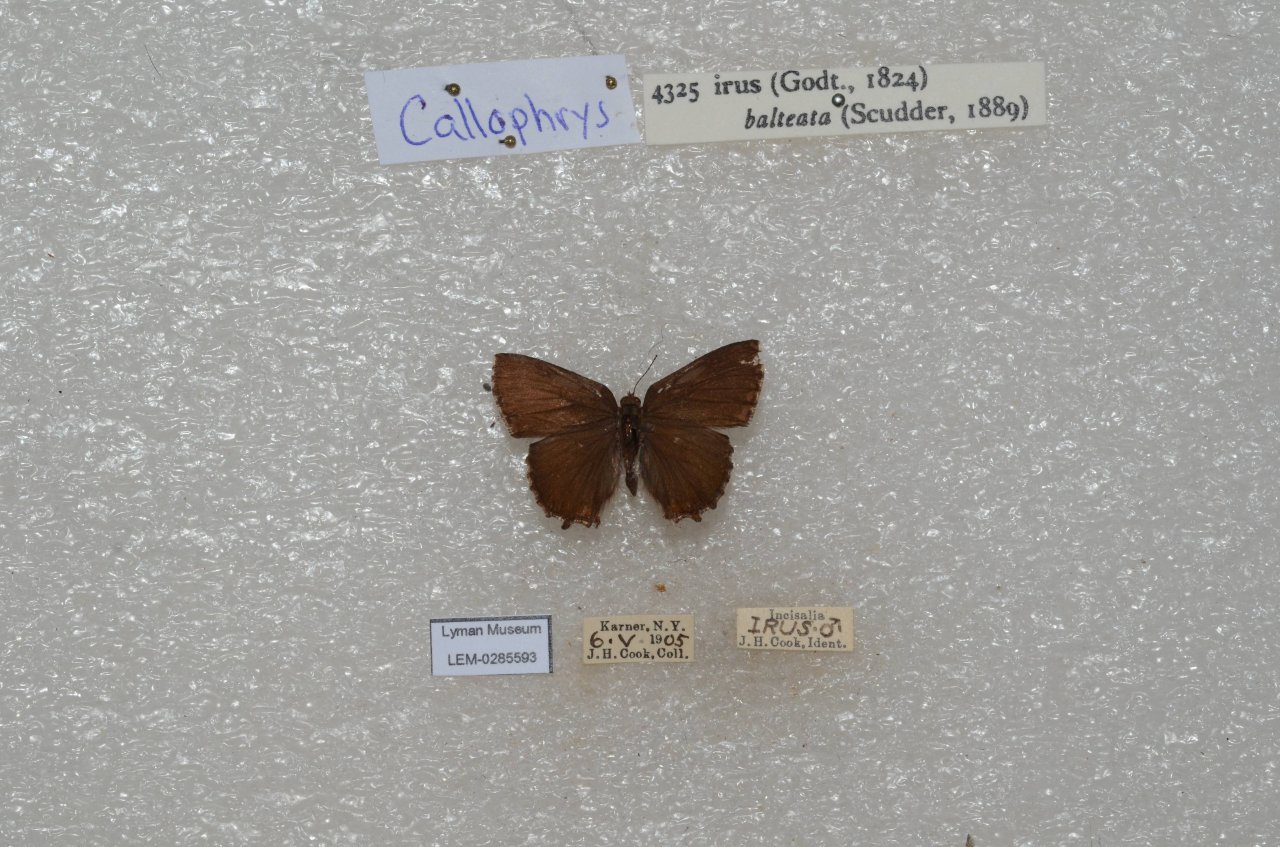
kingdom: Animalia
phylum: Arthropoda
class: Insecta
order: Lepidoptera
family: Lycaenidae
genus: Thecla
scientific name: Thecla irus
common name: Frosted Elfin
